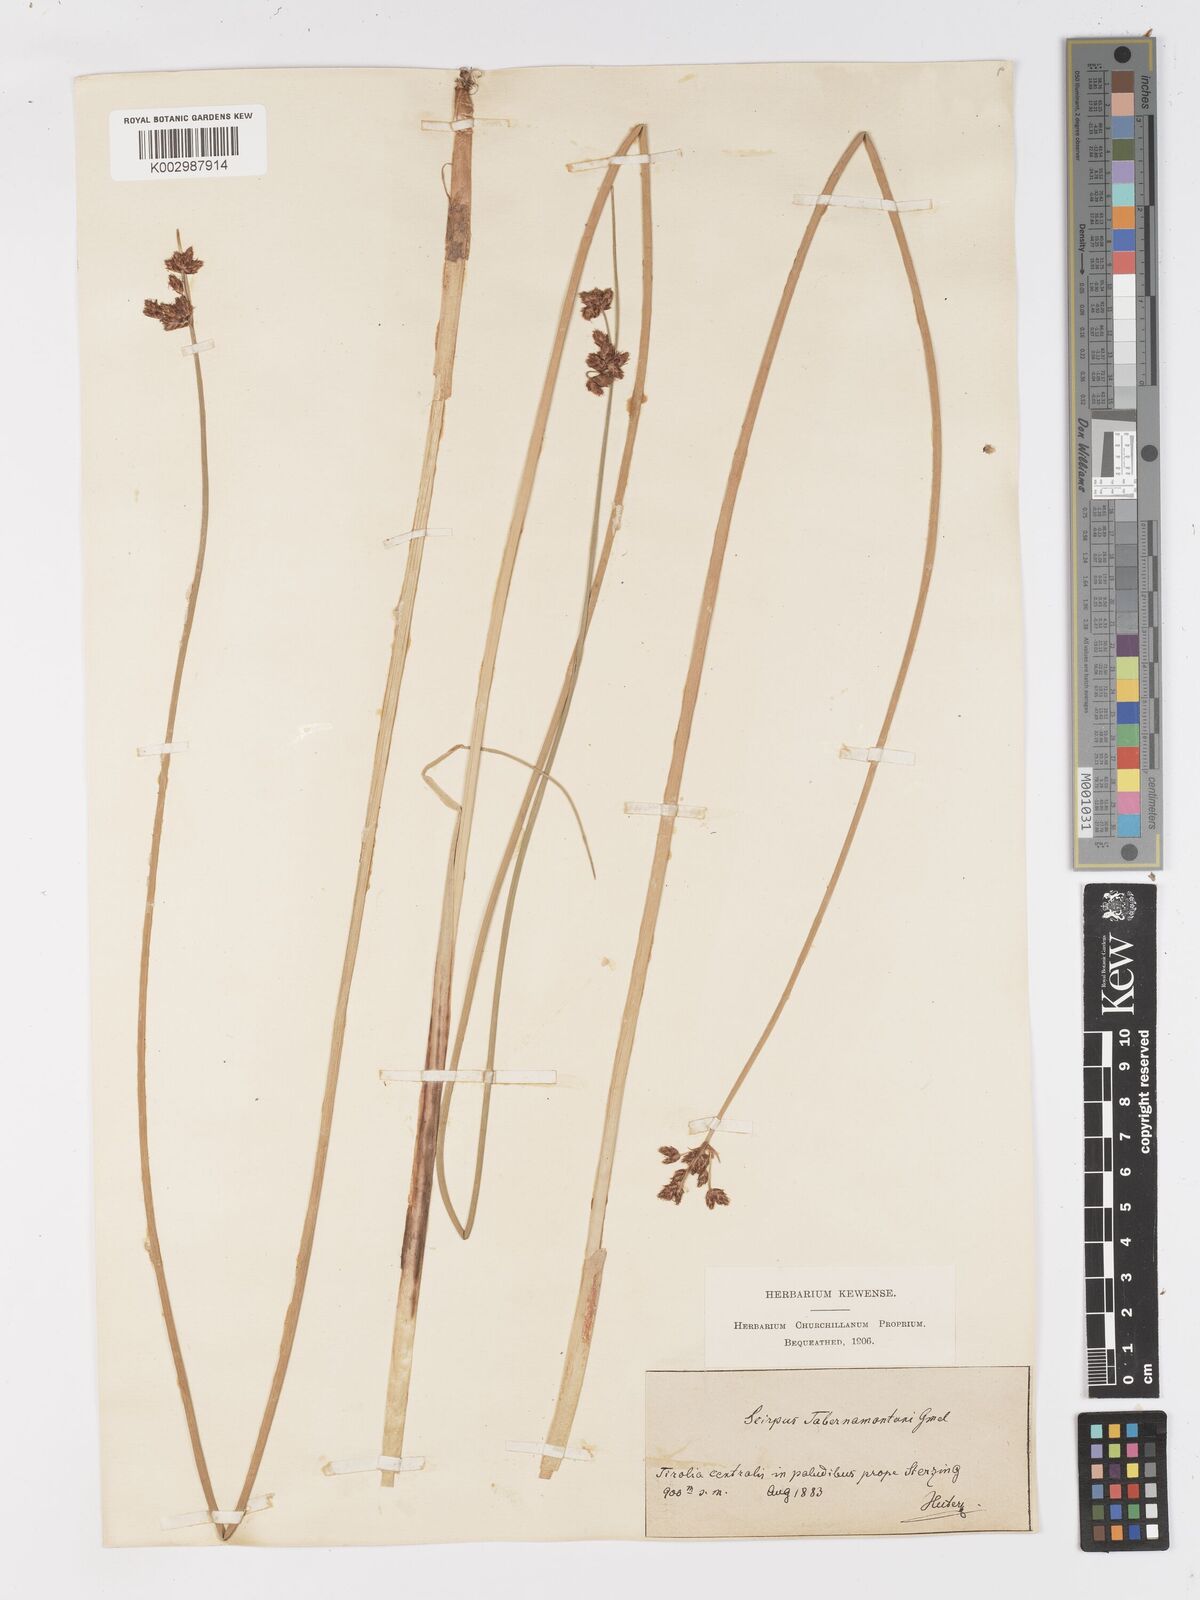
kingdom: Plantae
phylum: Tracheophyta
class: Liliopsida
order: Poales
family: Cyperaceae
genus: Schoenoplectus
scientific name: Schoenoplectus tabernaemontani
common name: Grey club-rush
